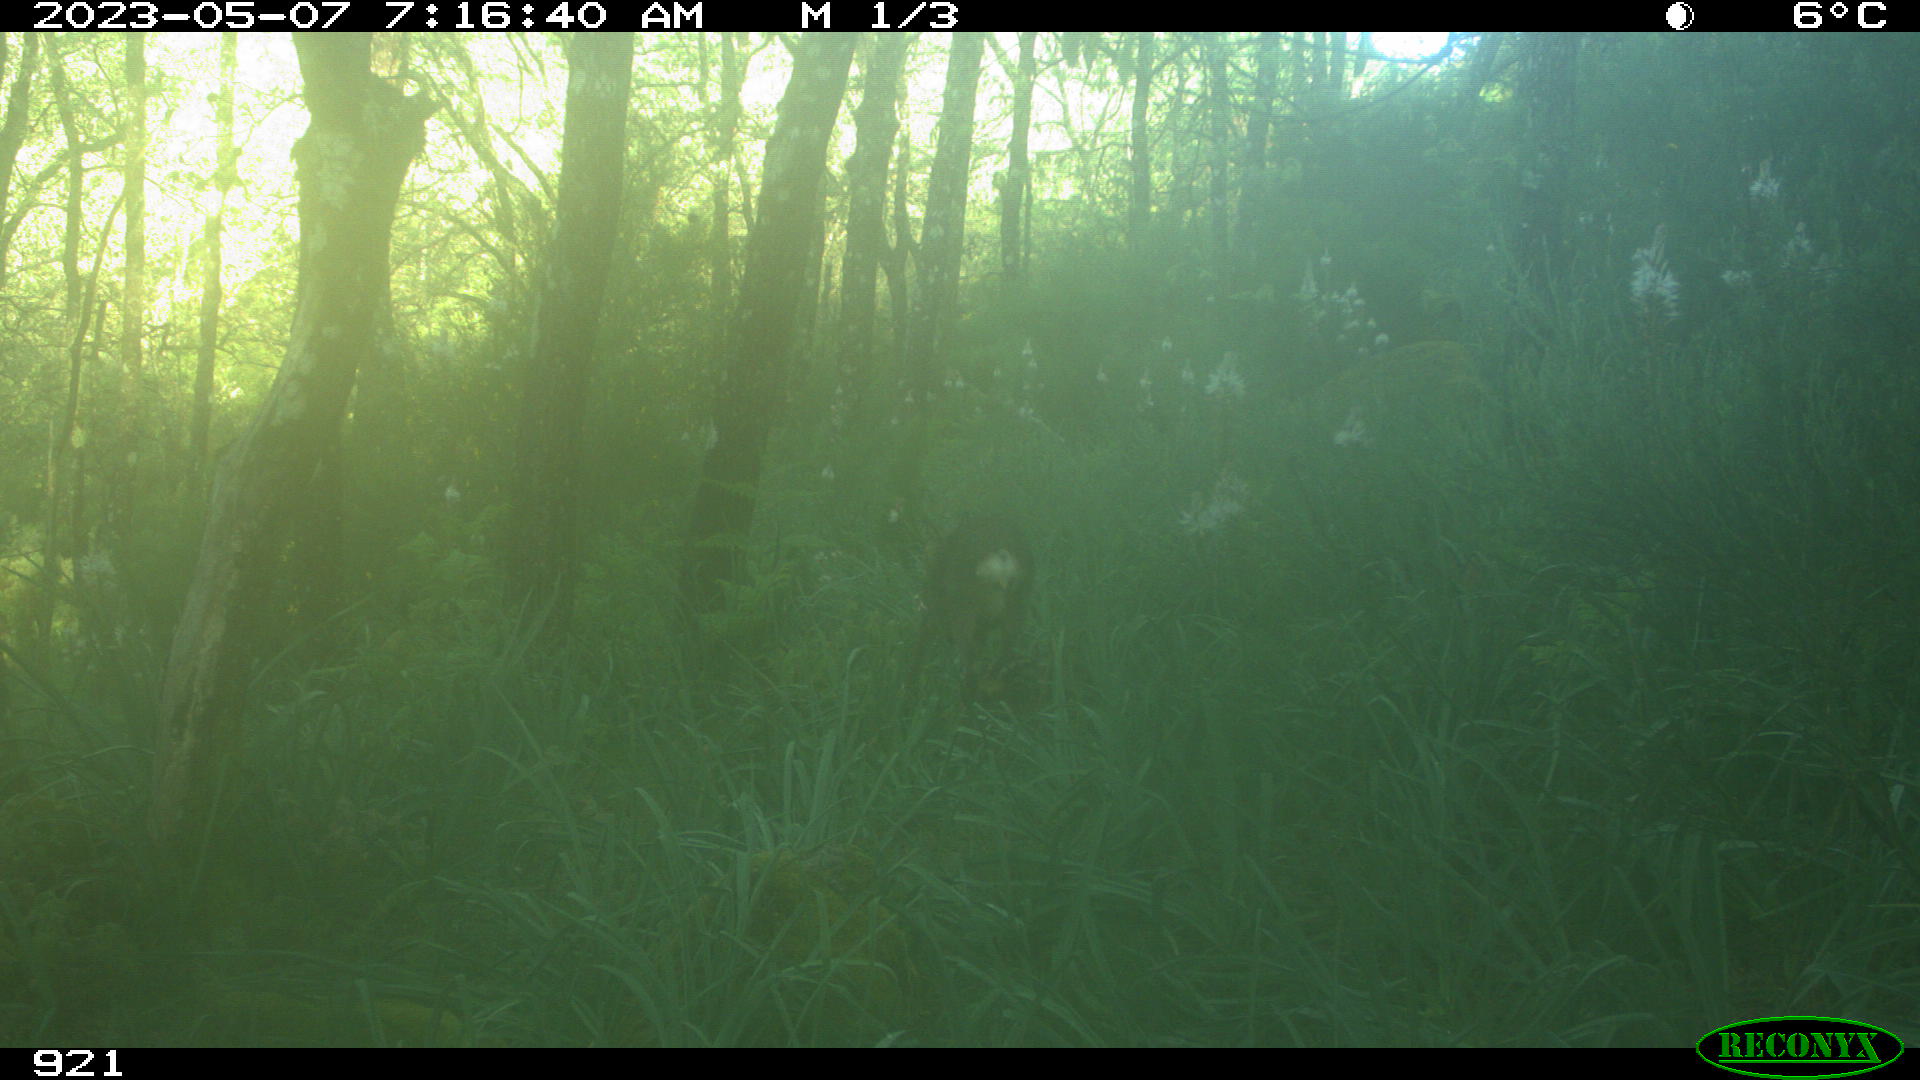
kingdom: Animalia
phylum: Chordata
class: Mammalia
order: Artiodactyla
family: Cervidae
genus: Capreolus
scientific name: Capreolus capreolus
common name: Western roe deer
